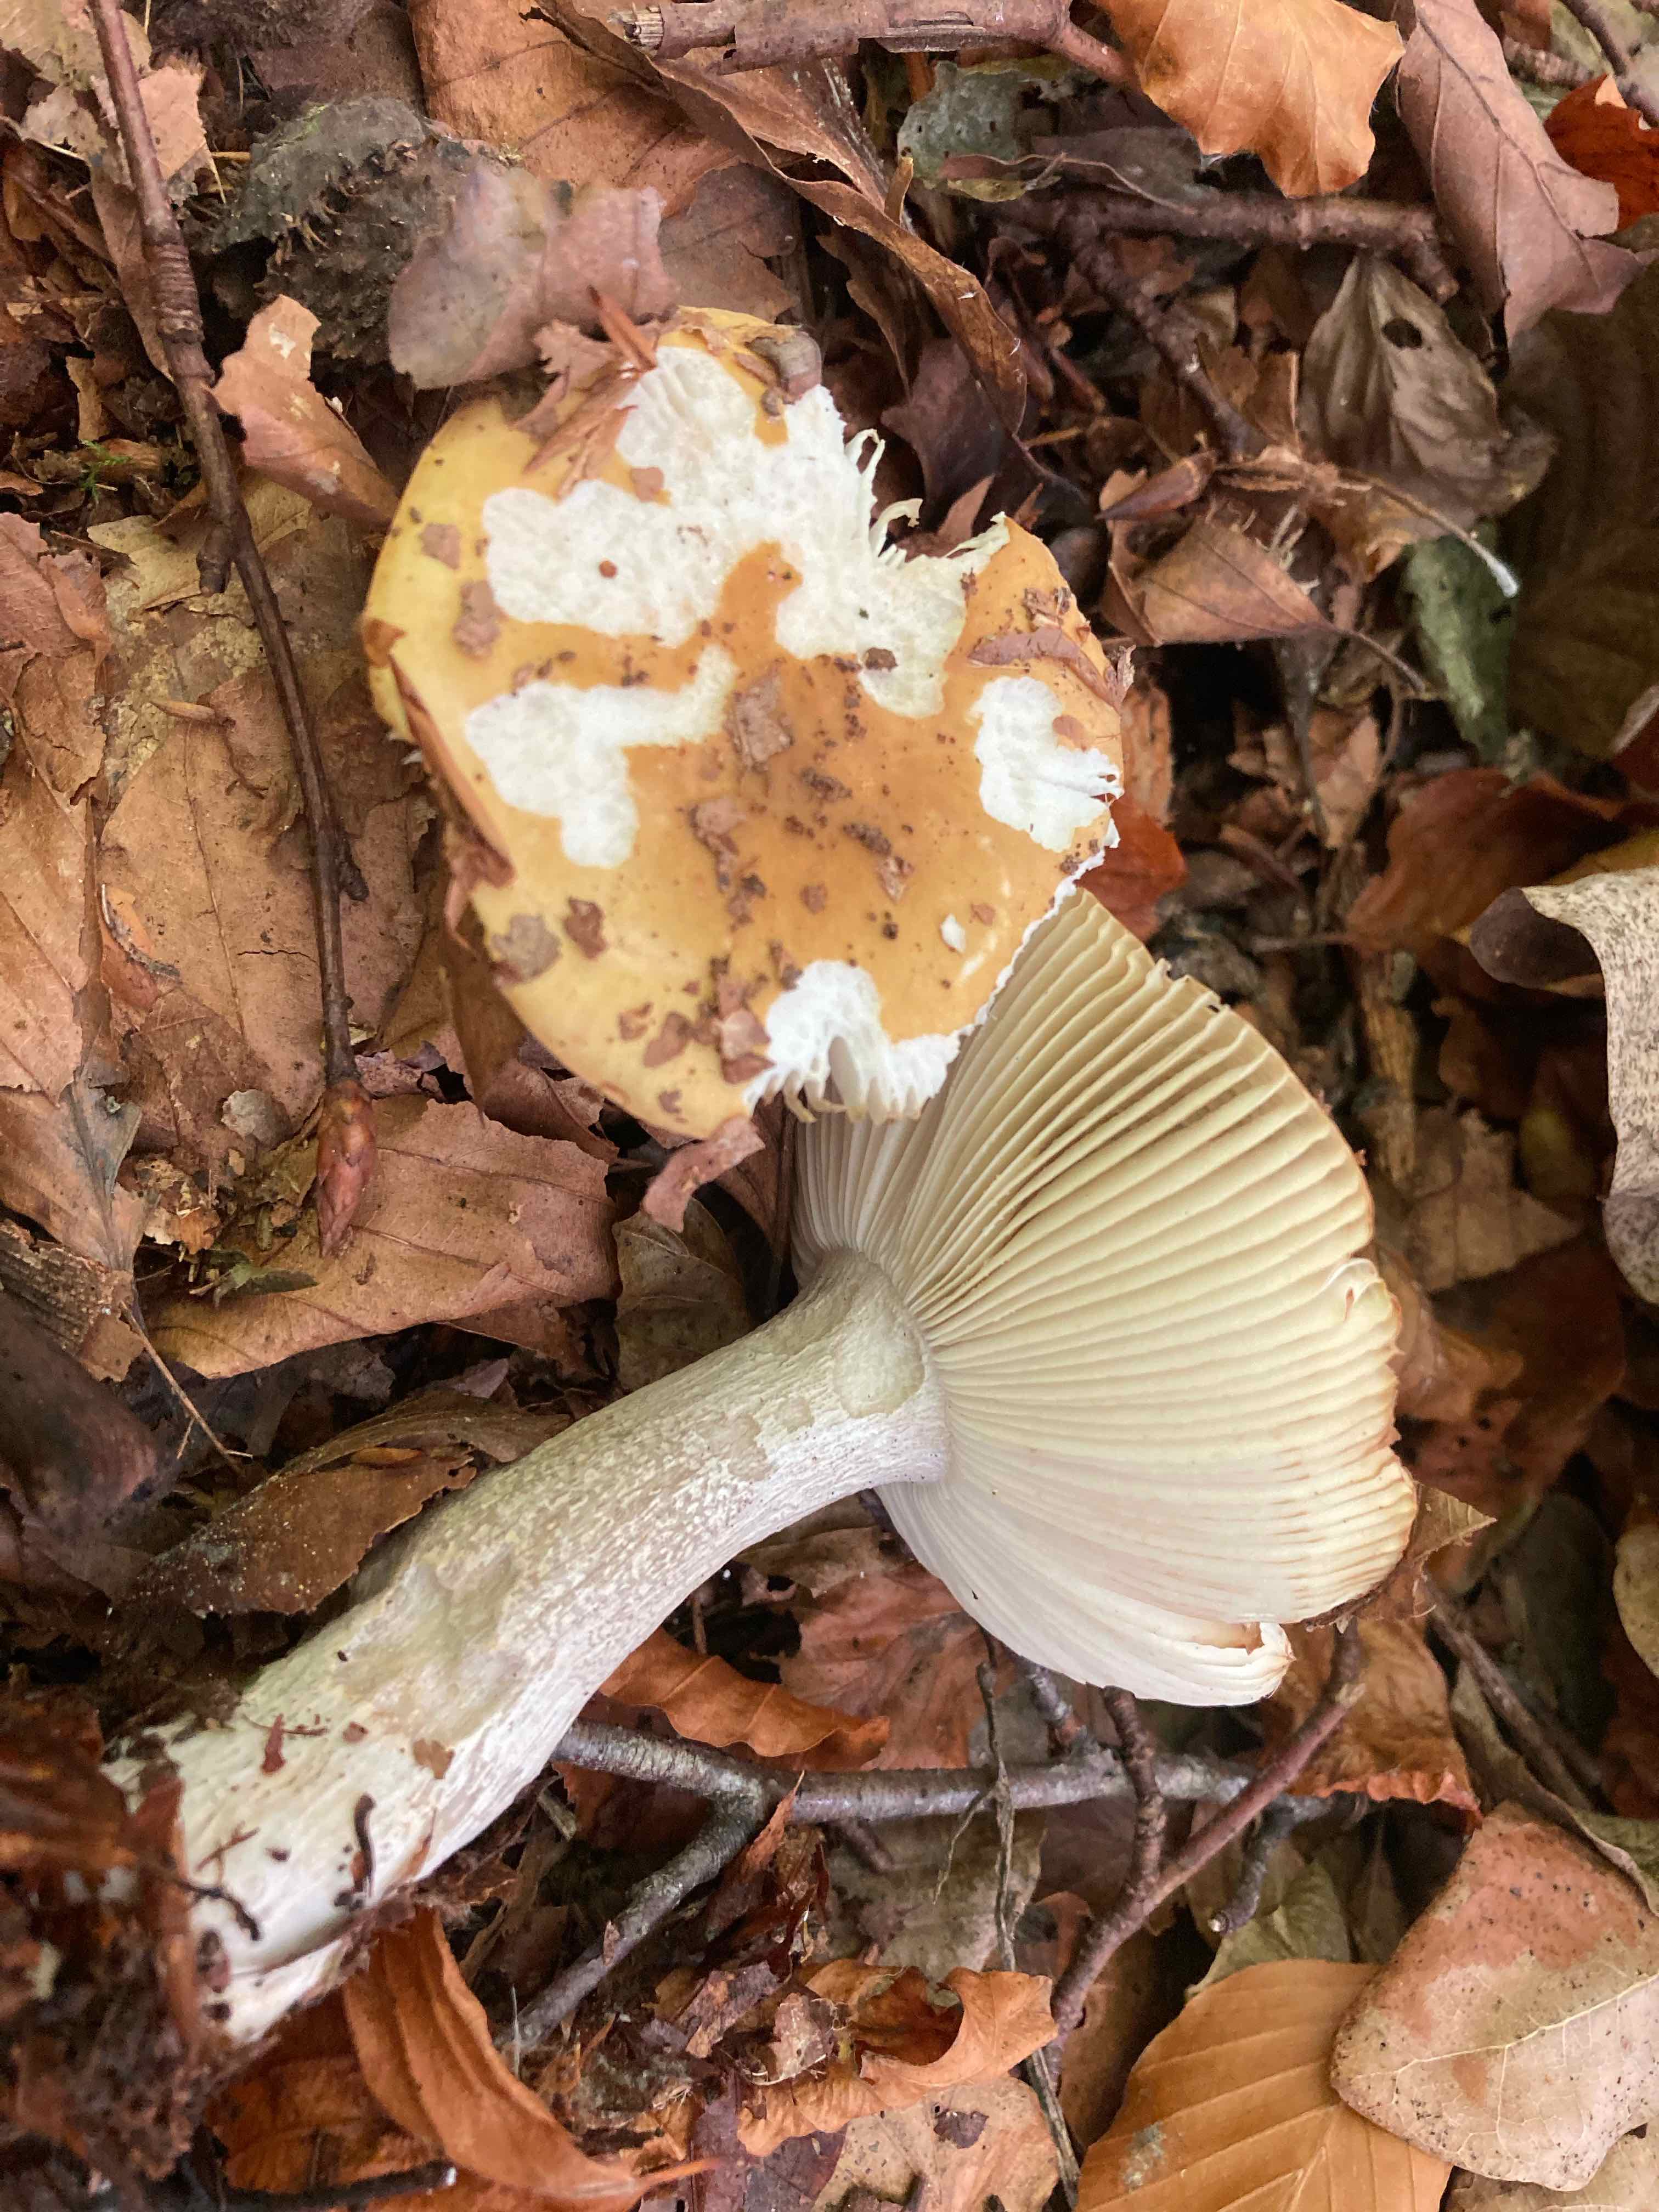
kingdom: Fungi
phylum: Basidiomycota
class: Agaricomycetes
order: Russulales
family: Russulaceae
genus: Russula
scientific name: Russula ochroleuca
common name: okkergul skørhat
